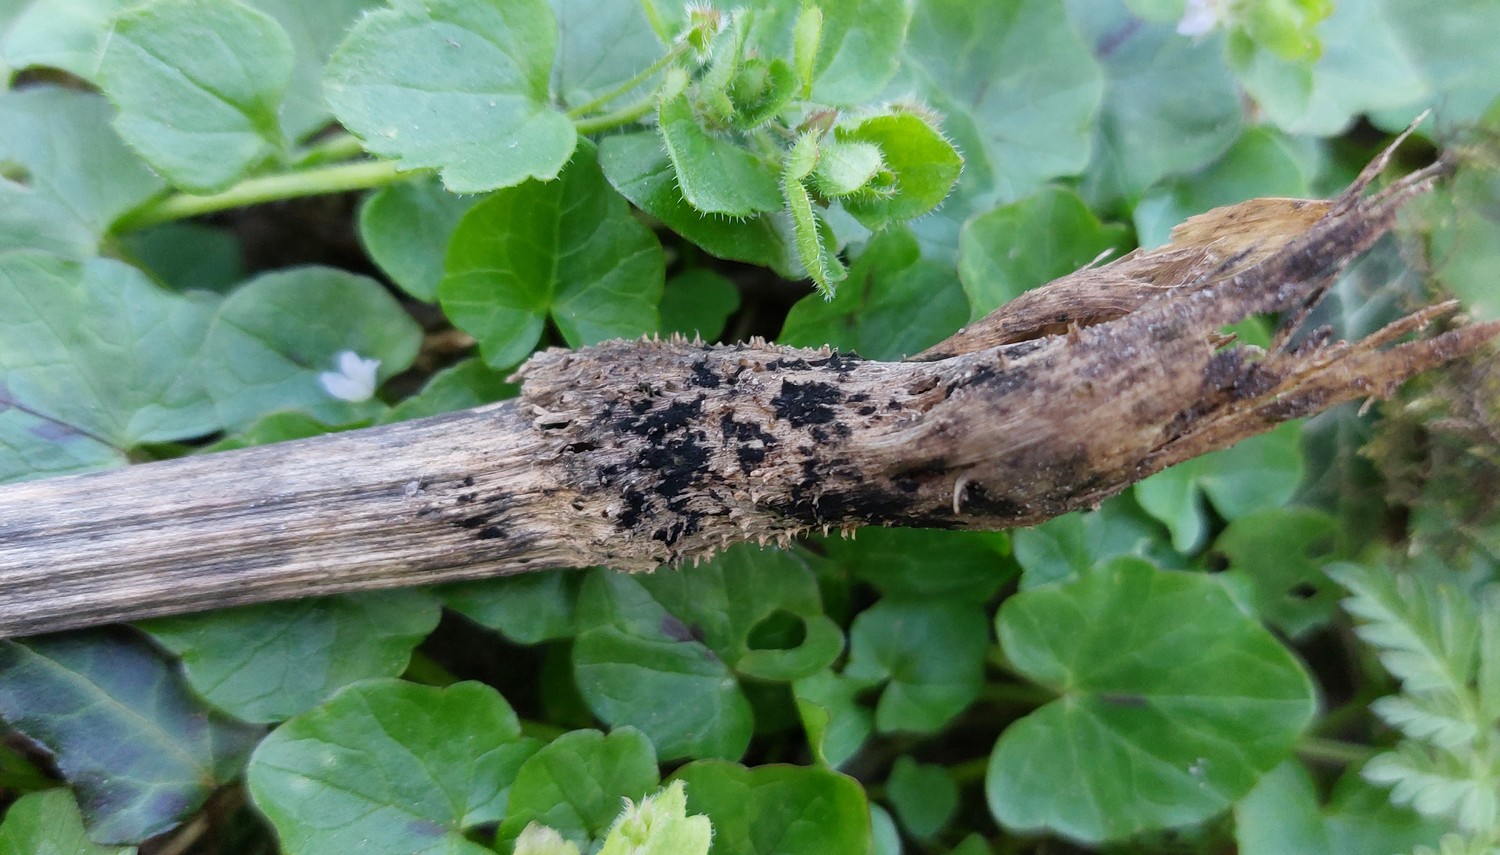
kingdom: Fungi
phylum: Ascomycota
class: Dothideomycetes
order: Pleosporales
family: Torulaceae
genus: Torula
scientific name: Torula herbarum
